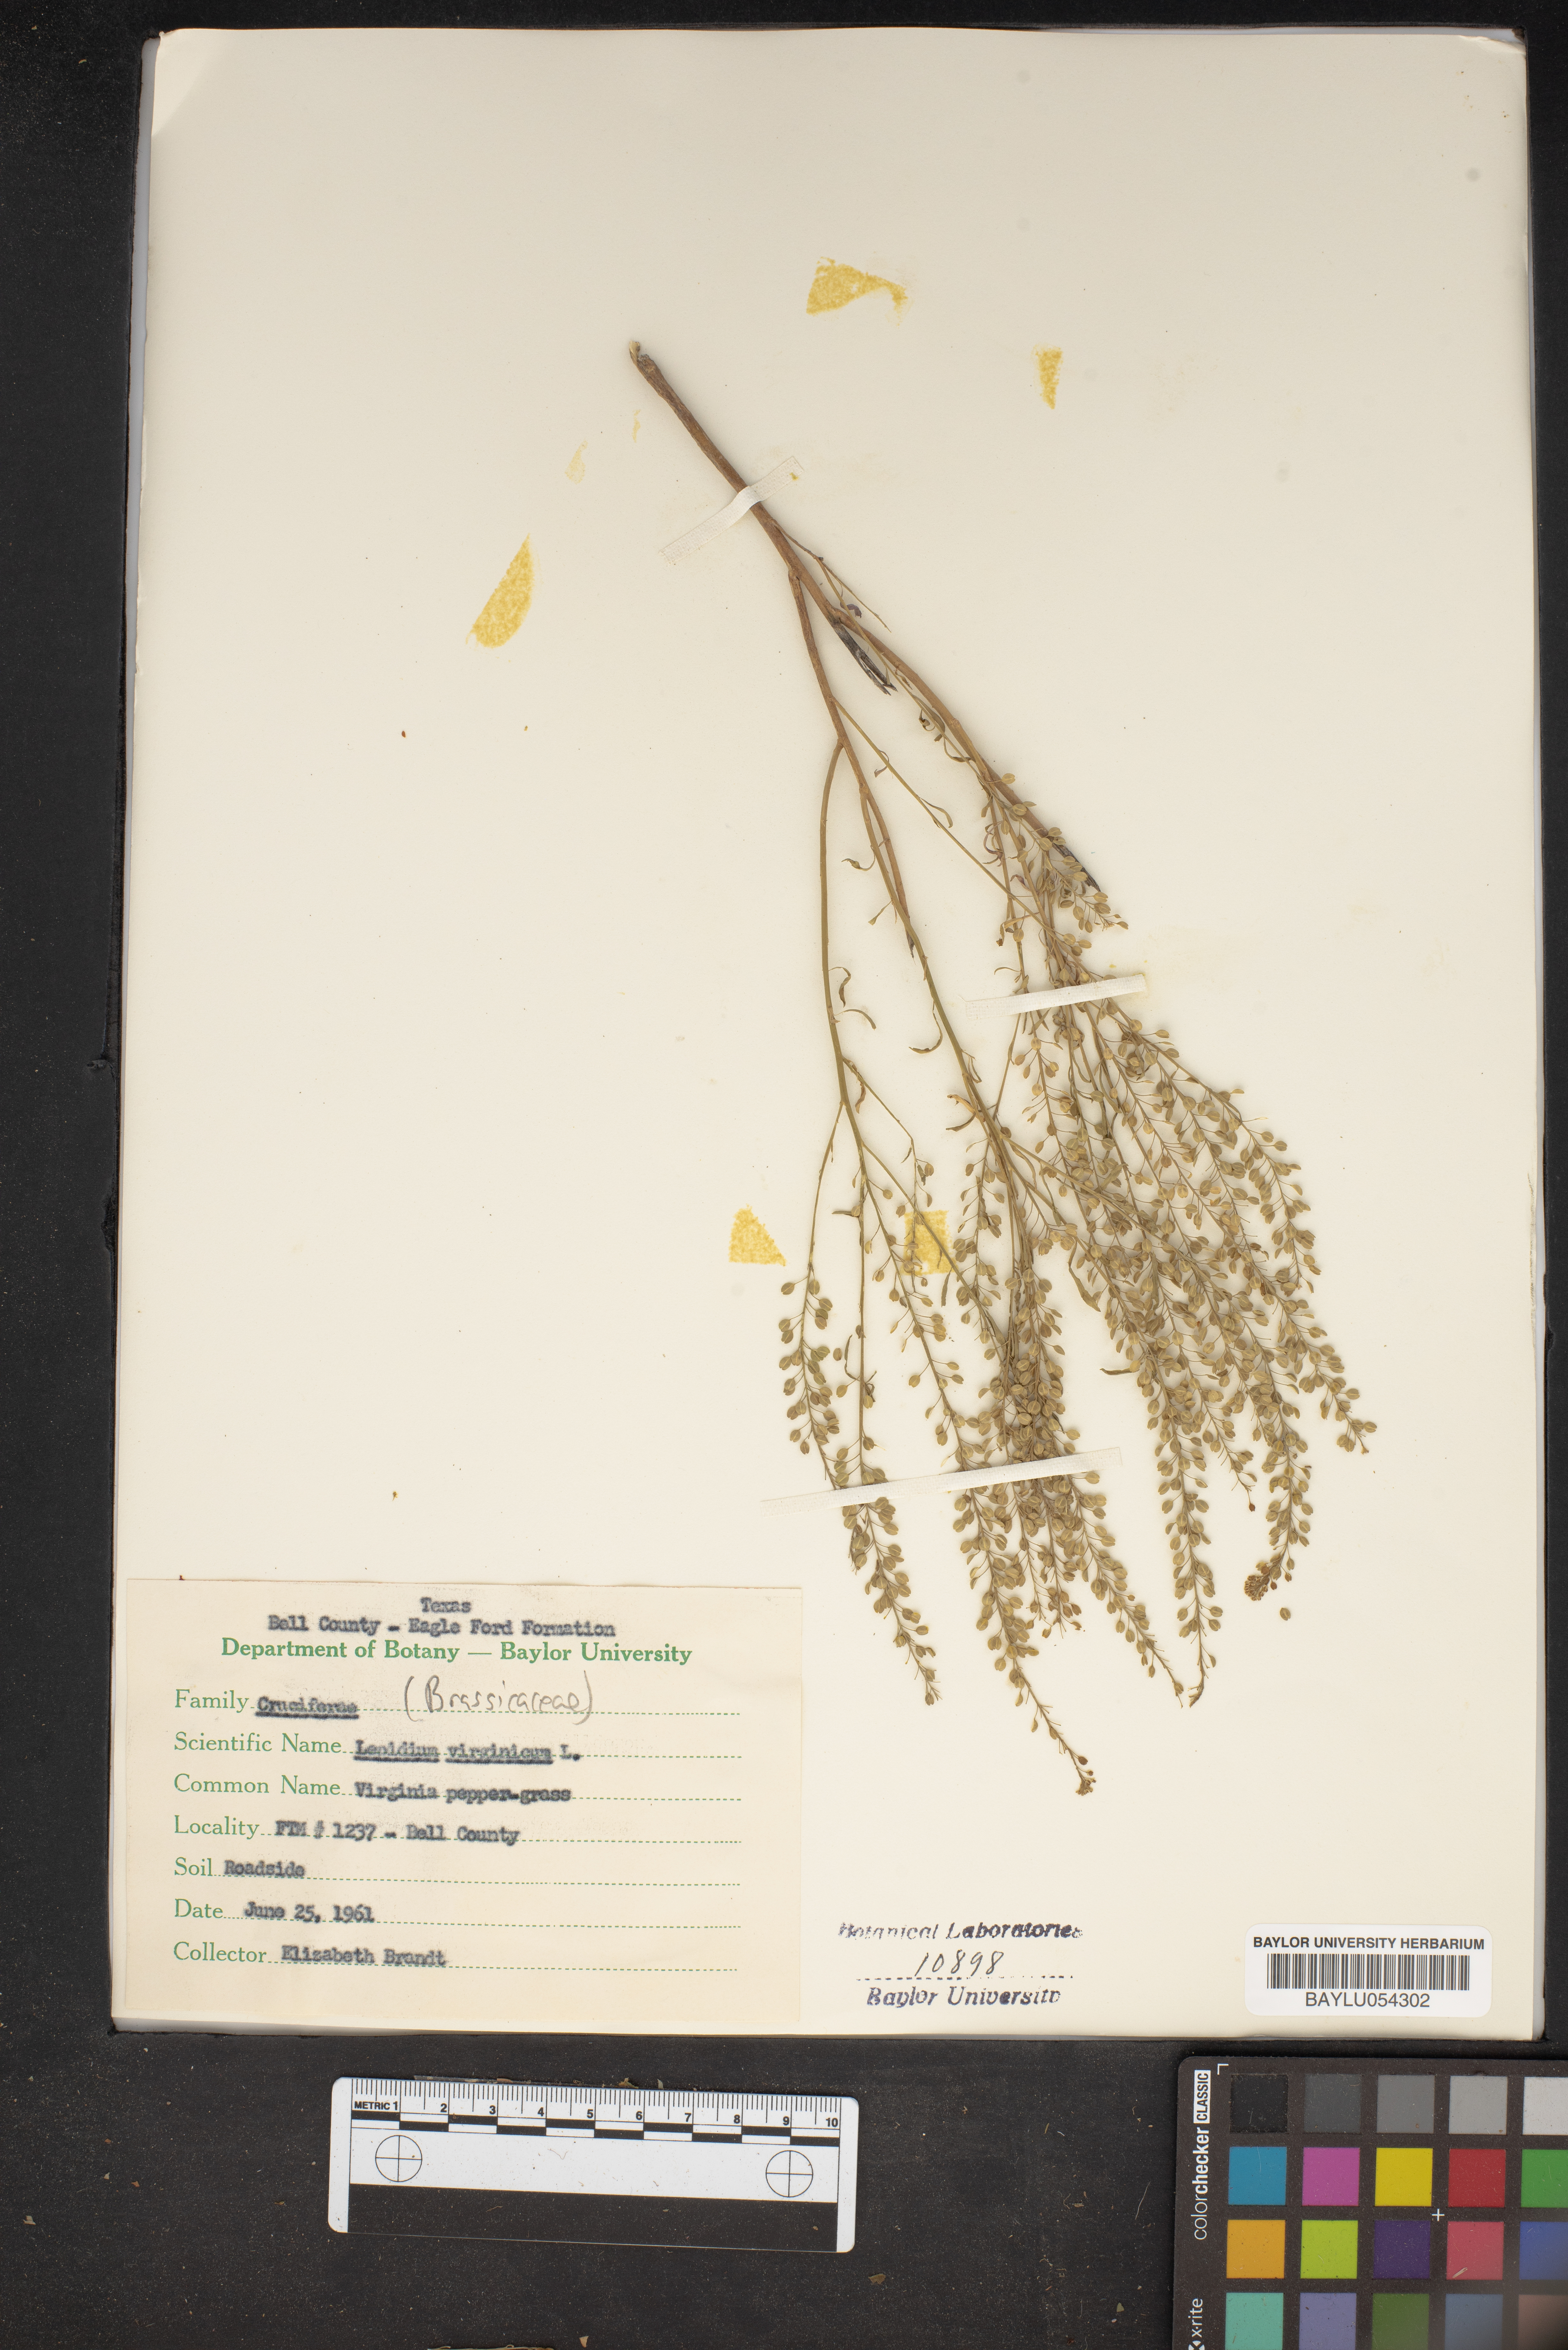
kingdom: Plantae
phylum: Tracheophyta
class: Magnoliopsida
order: Brassicales
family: Brassicaceae
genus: Lepidium
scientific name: Lepidium virginicum
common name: Least pepperwort
